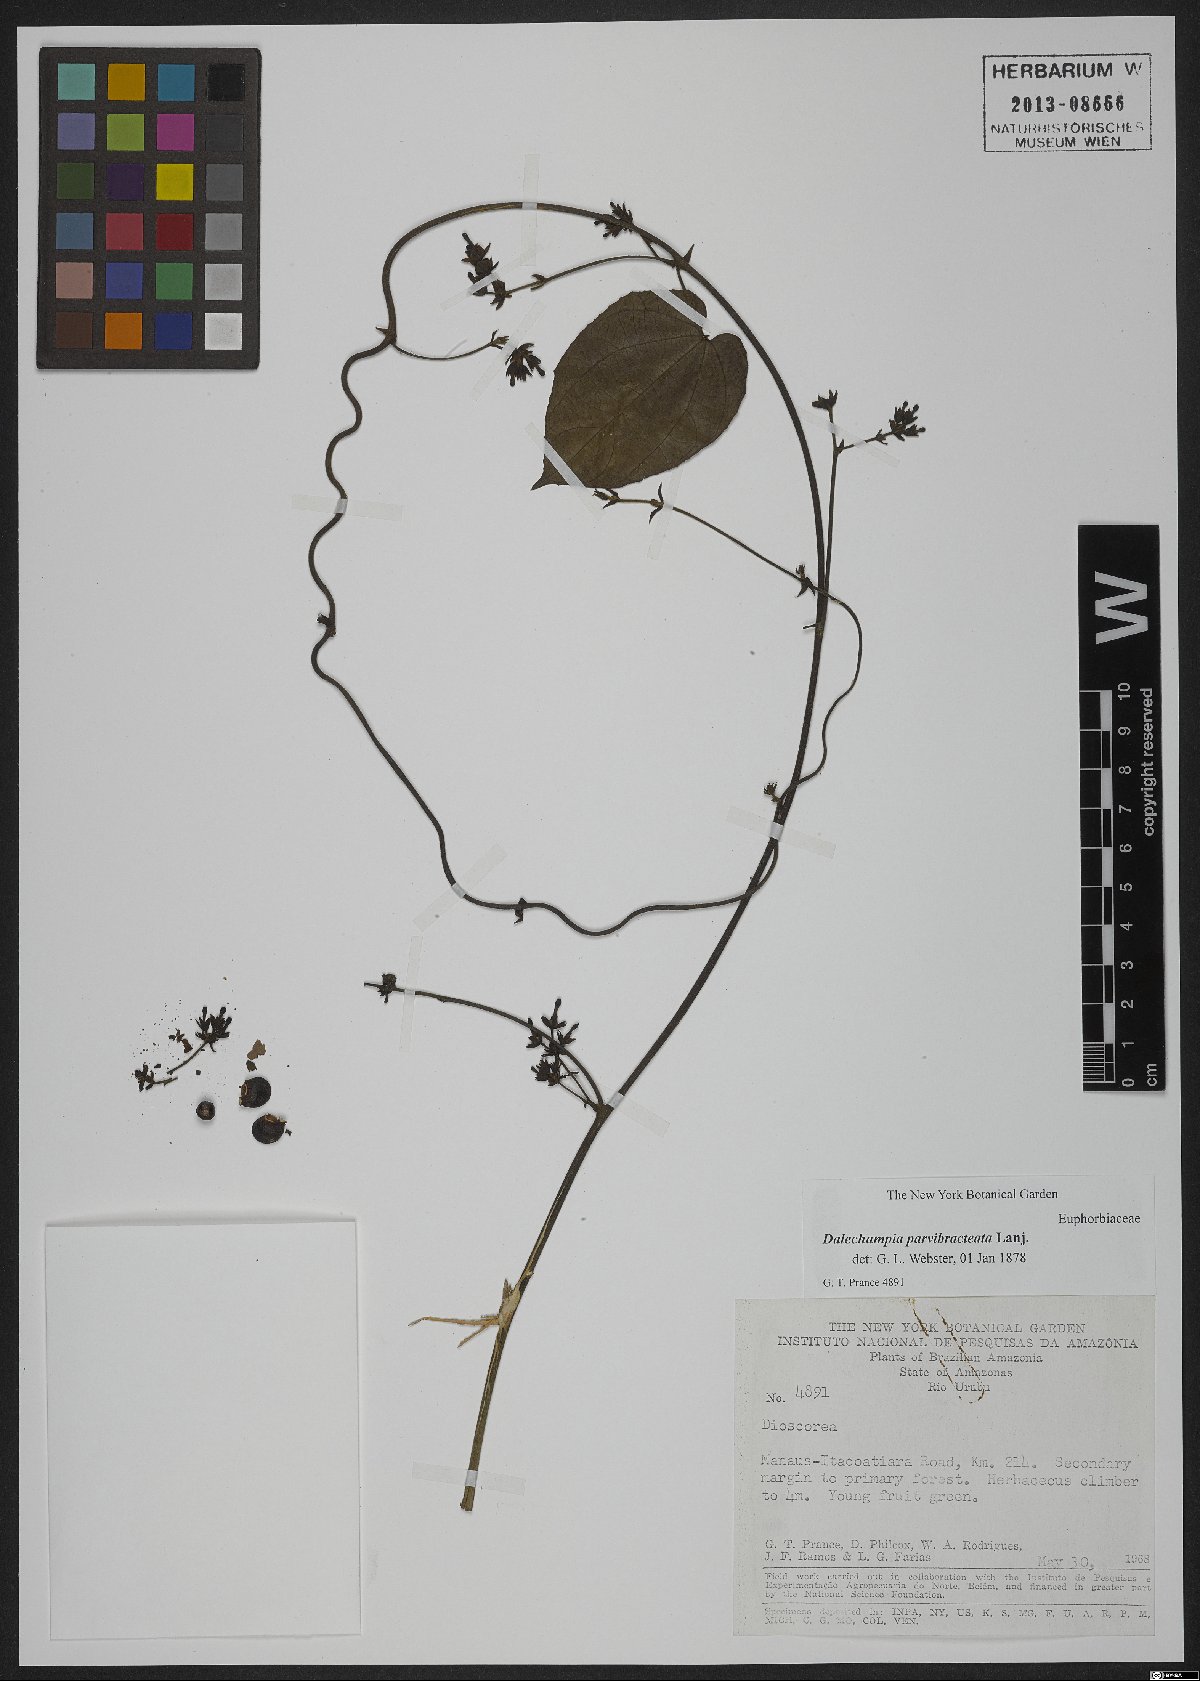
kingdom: Plantae
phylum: Tracheophyta
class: Magnoliopsida
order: Malpighiales
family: Euphorbiaceae
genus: Dalechampia
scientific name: Dalechampia parvibracteata
